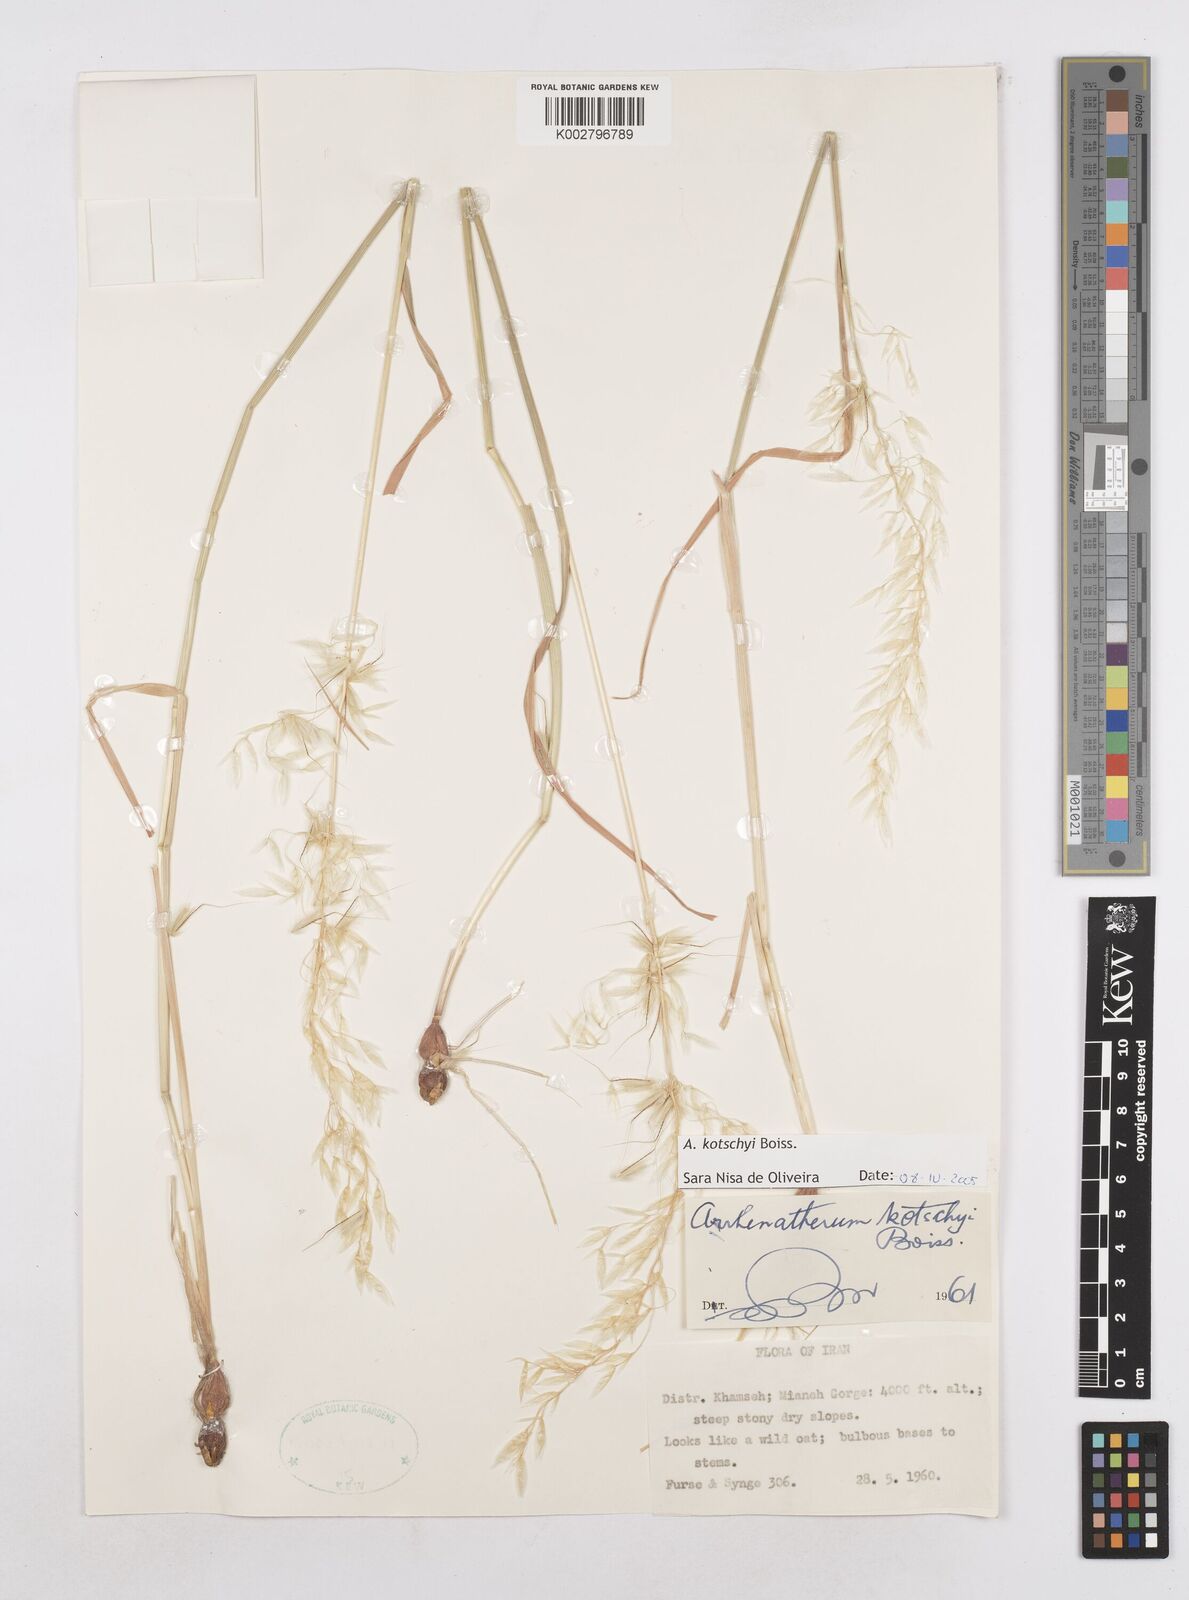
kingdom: Plantae
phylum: Tracheophyta
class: Liliopsida
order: Poales
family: Poaceae
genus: Arrhenatherum
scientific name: Arrhenatherum kotschyi
